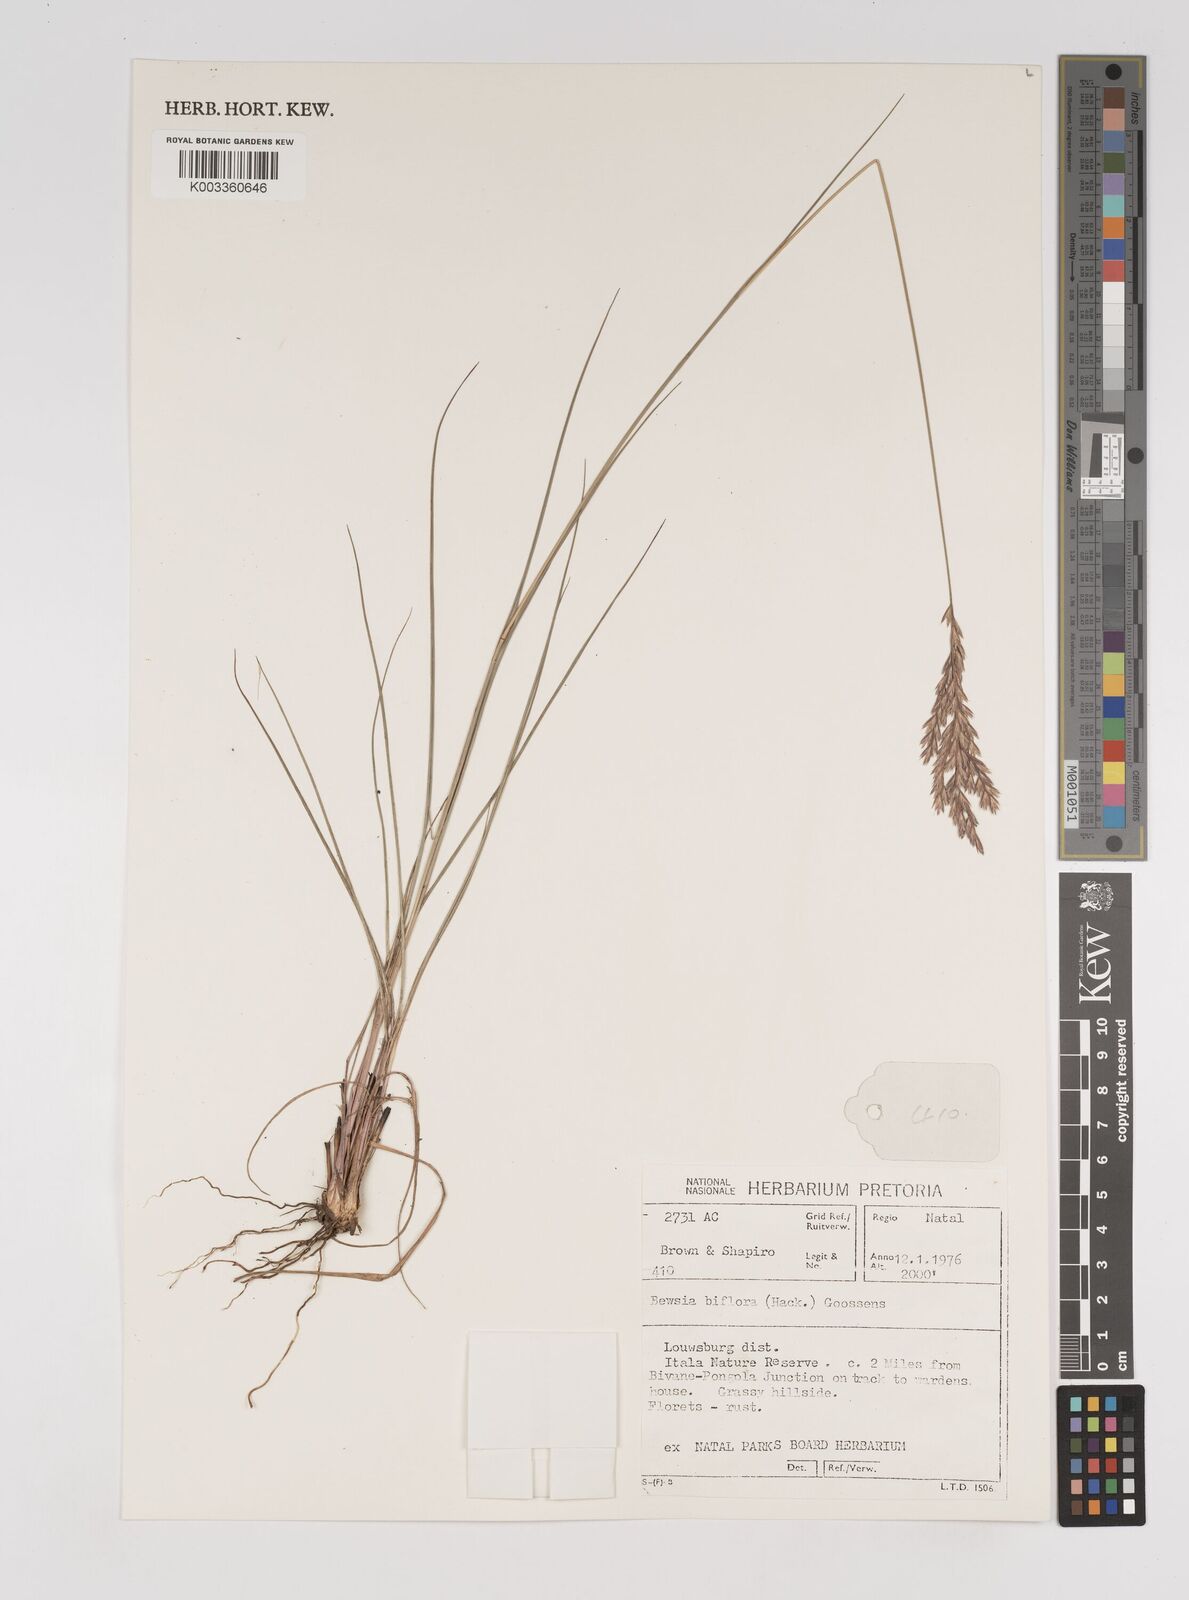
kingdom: Plantae
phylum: Tracheophyta
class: Liliopsida
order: Poales
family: Poaceae
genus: Bewsia
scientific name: Bewsia biflora
